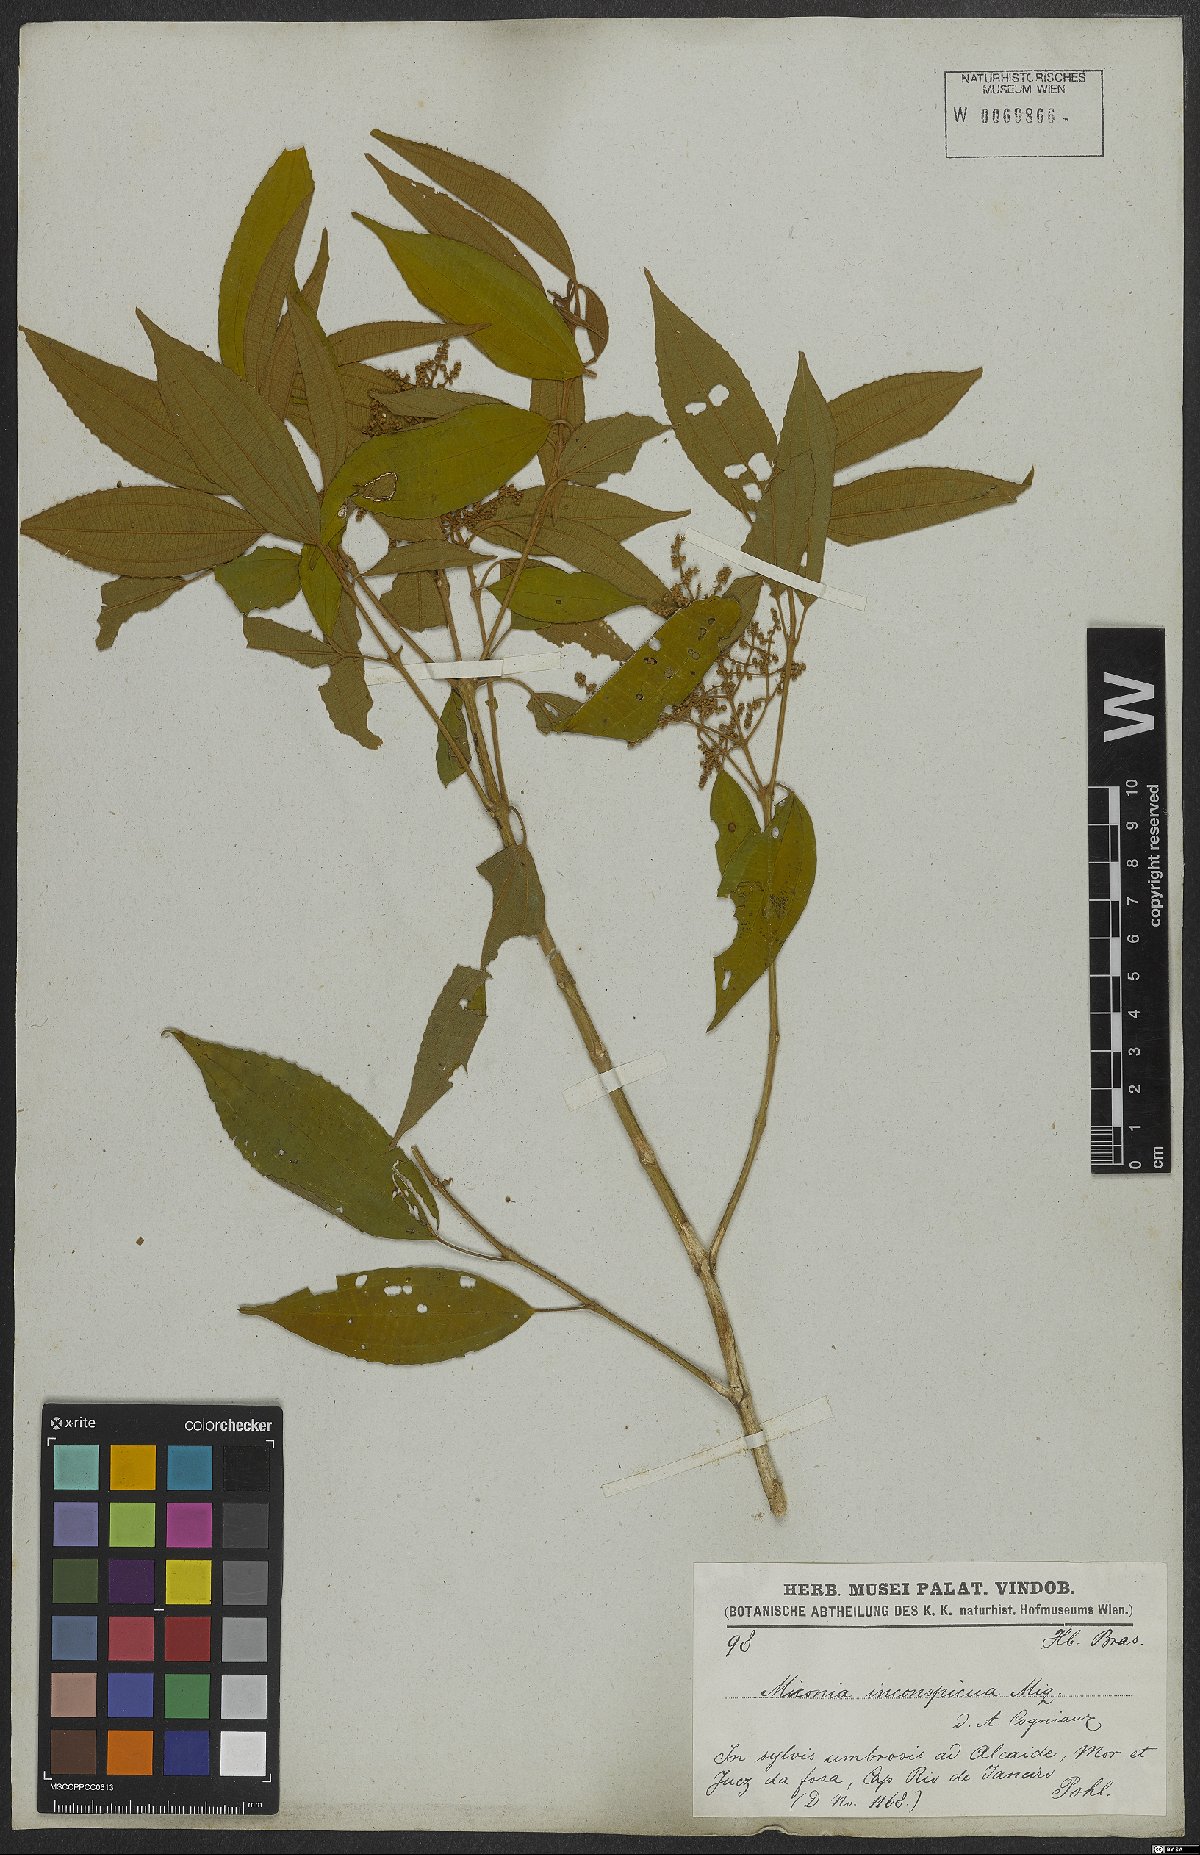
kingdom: Plantae
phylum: Tracheophyta
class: Magnoliopsida
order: Myrtales
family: Melastomataceae
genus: Miconia
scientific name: Miconia inconspicua
